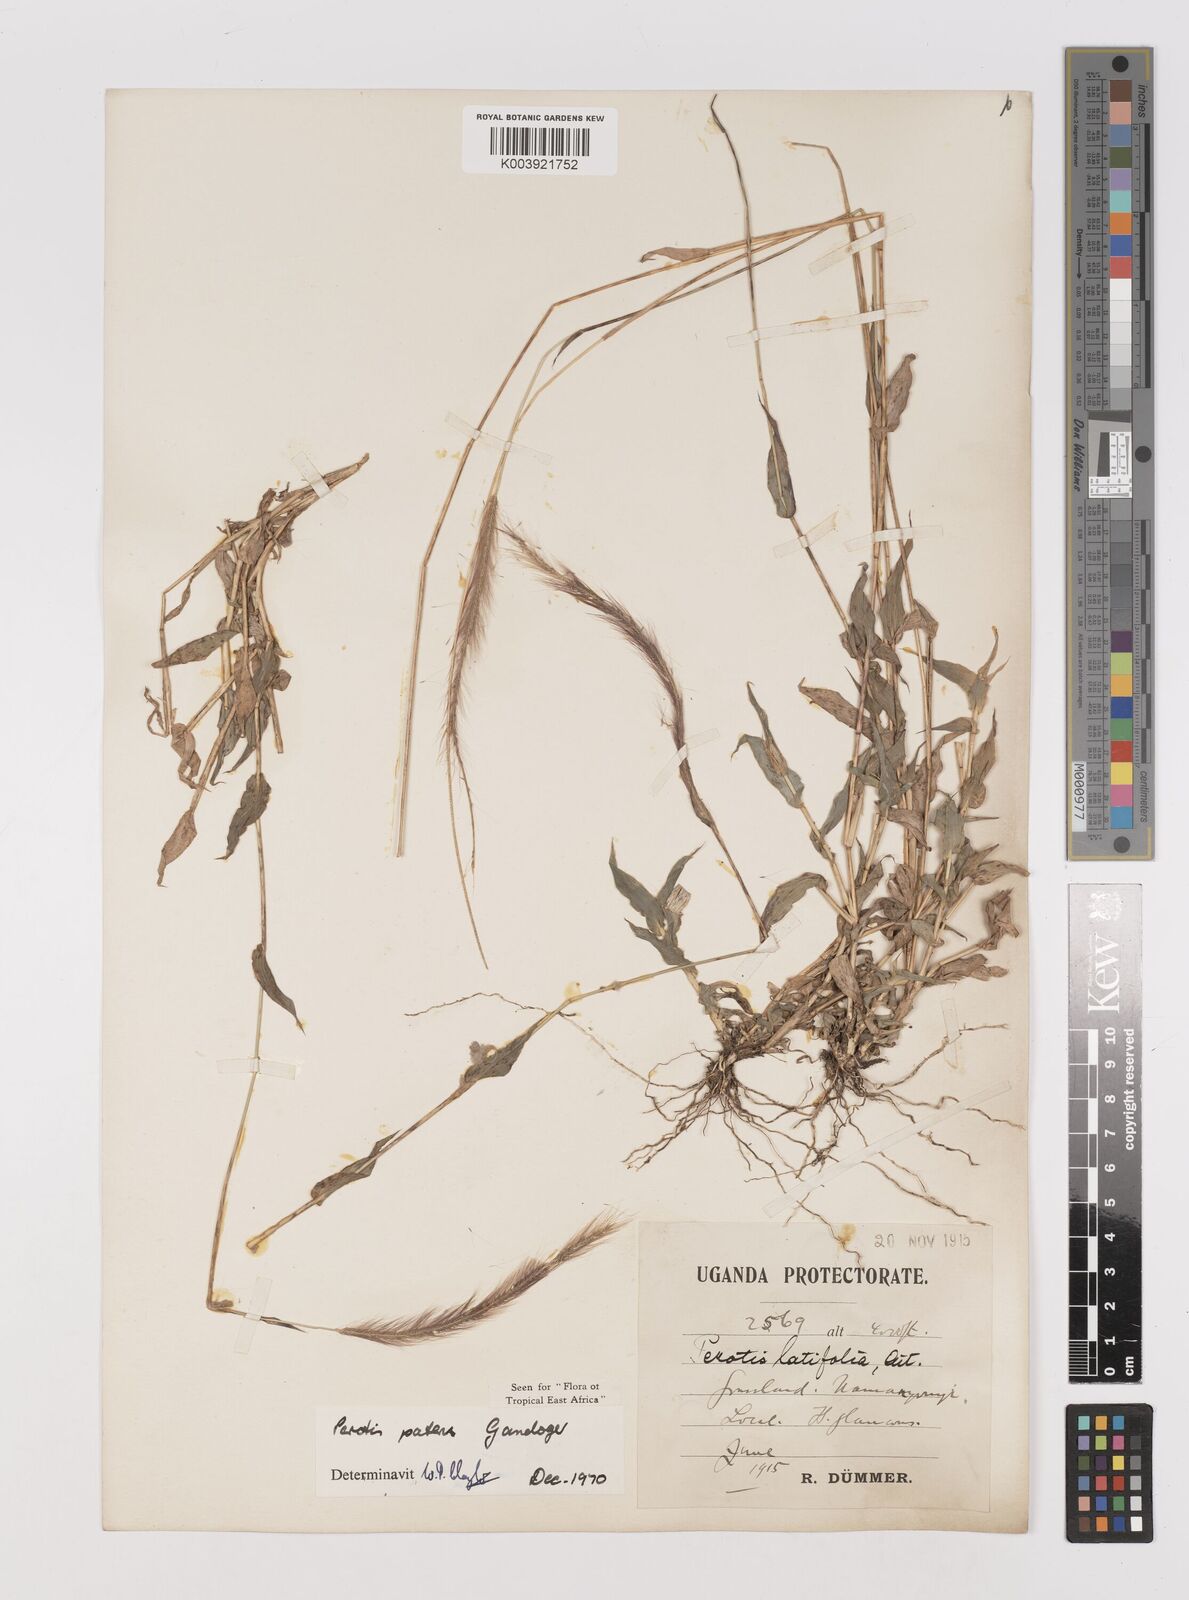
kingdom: Plantae
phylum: Tracheophyta
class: Liliopsida
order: Poales
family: Poaceae
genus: Perotis
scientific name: Perotis patens
